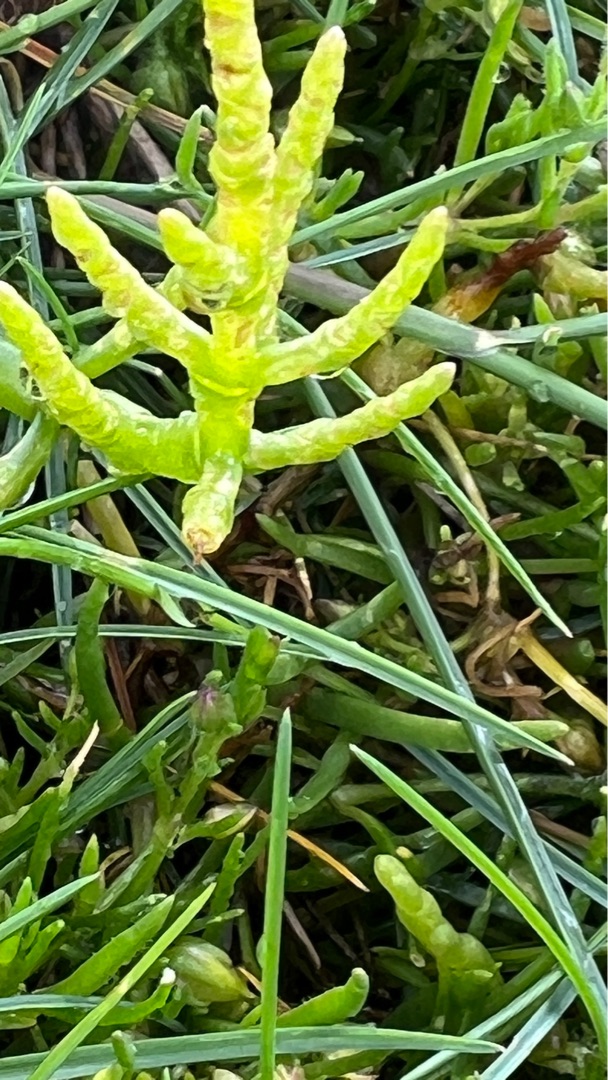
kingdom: Plantae
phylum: Tracheophyta
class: Magnoliopsida
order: Caryophyllales
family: Amaranthaceae
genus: Salicornia
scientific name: Salicornia europaea
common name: Almindelig salturt
